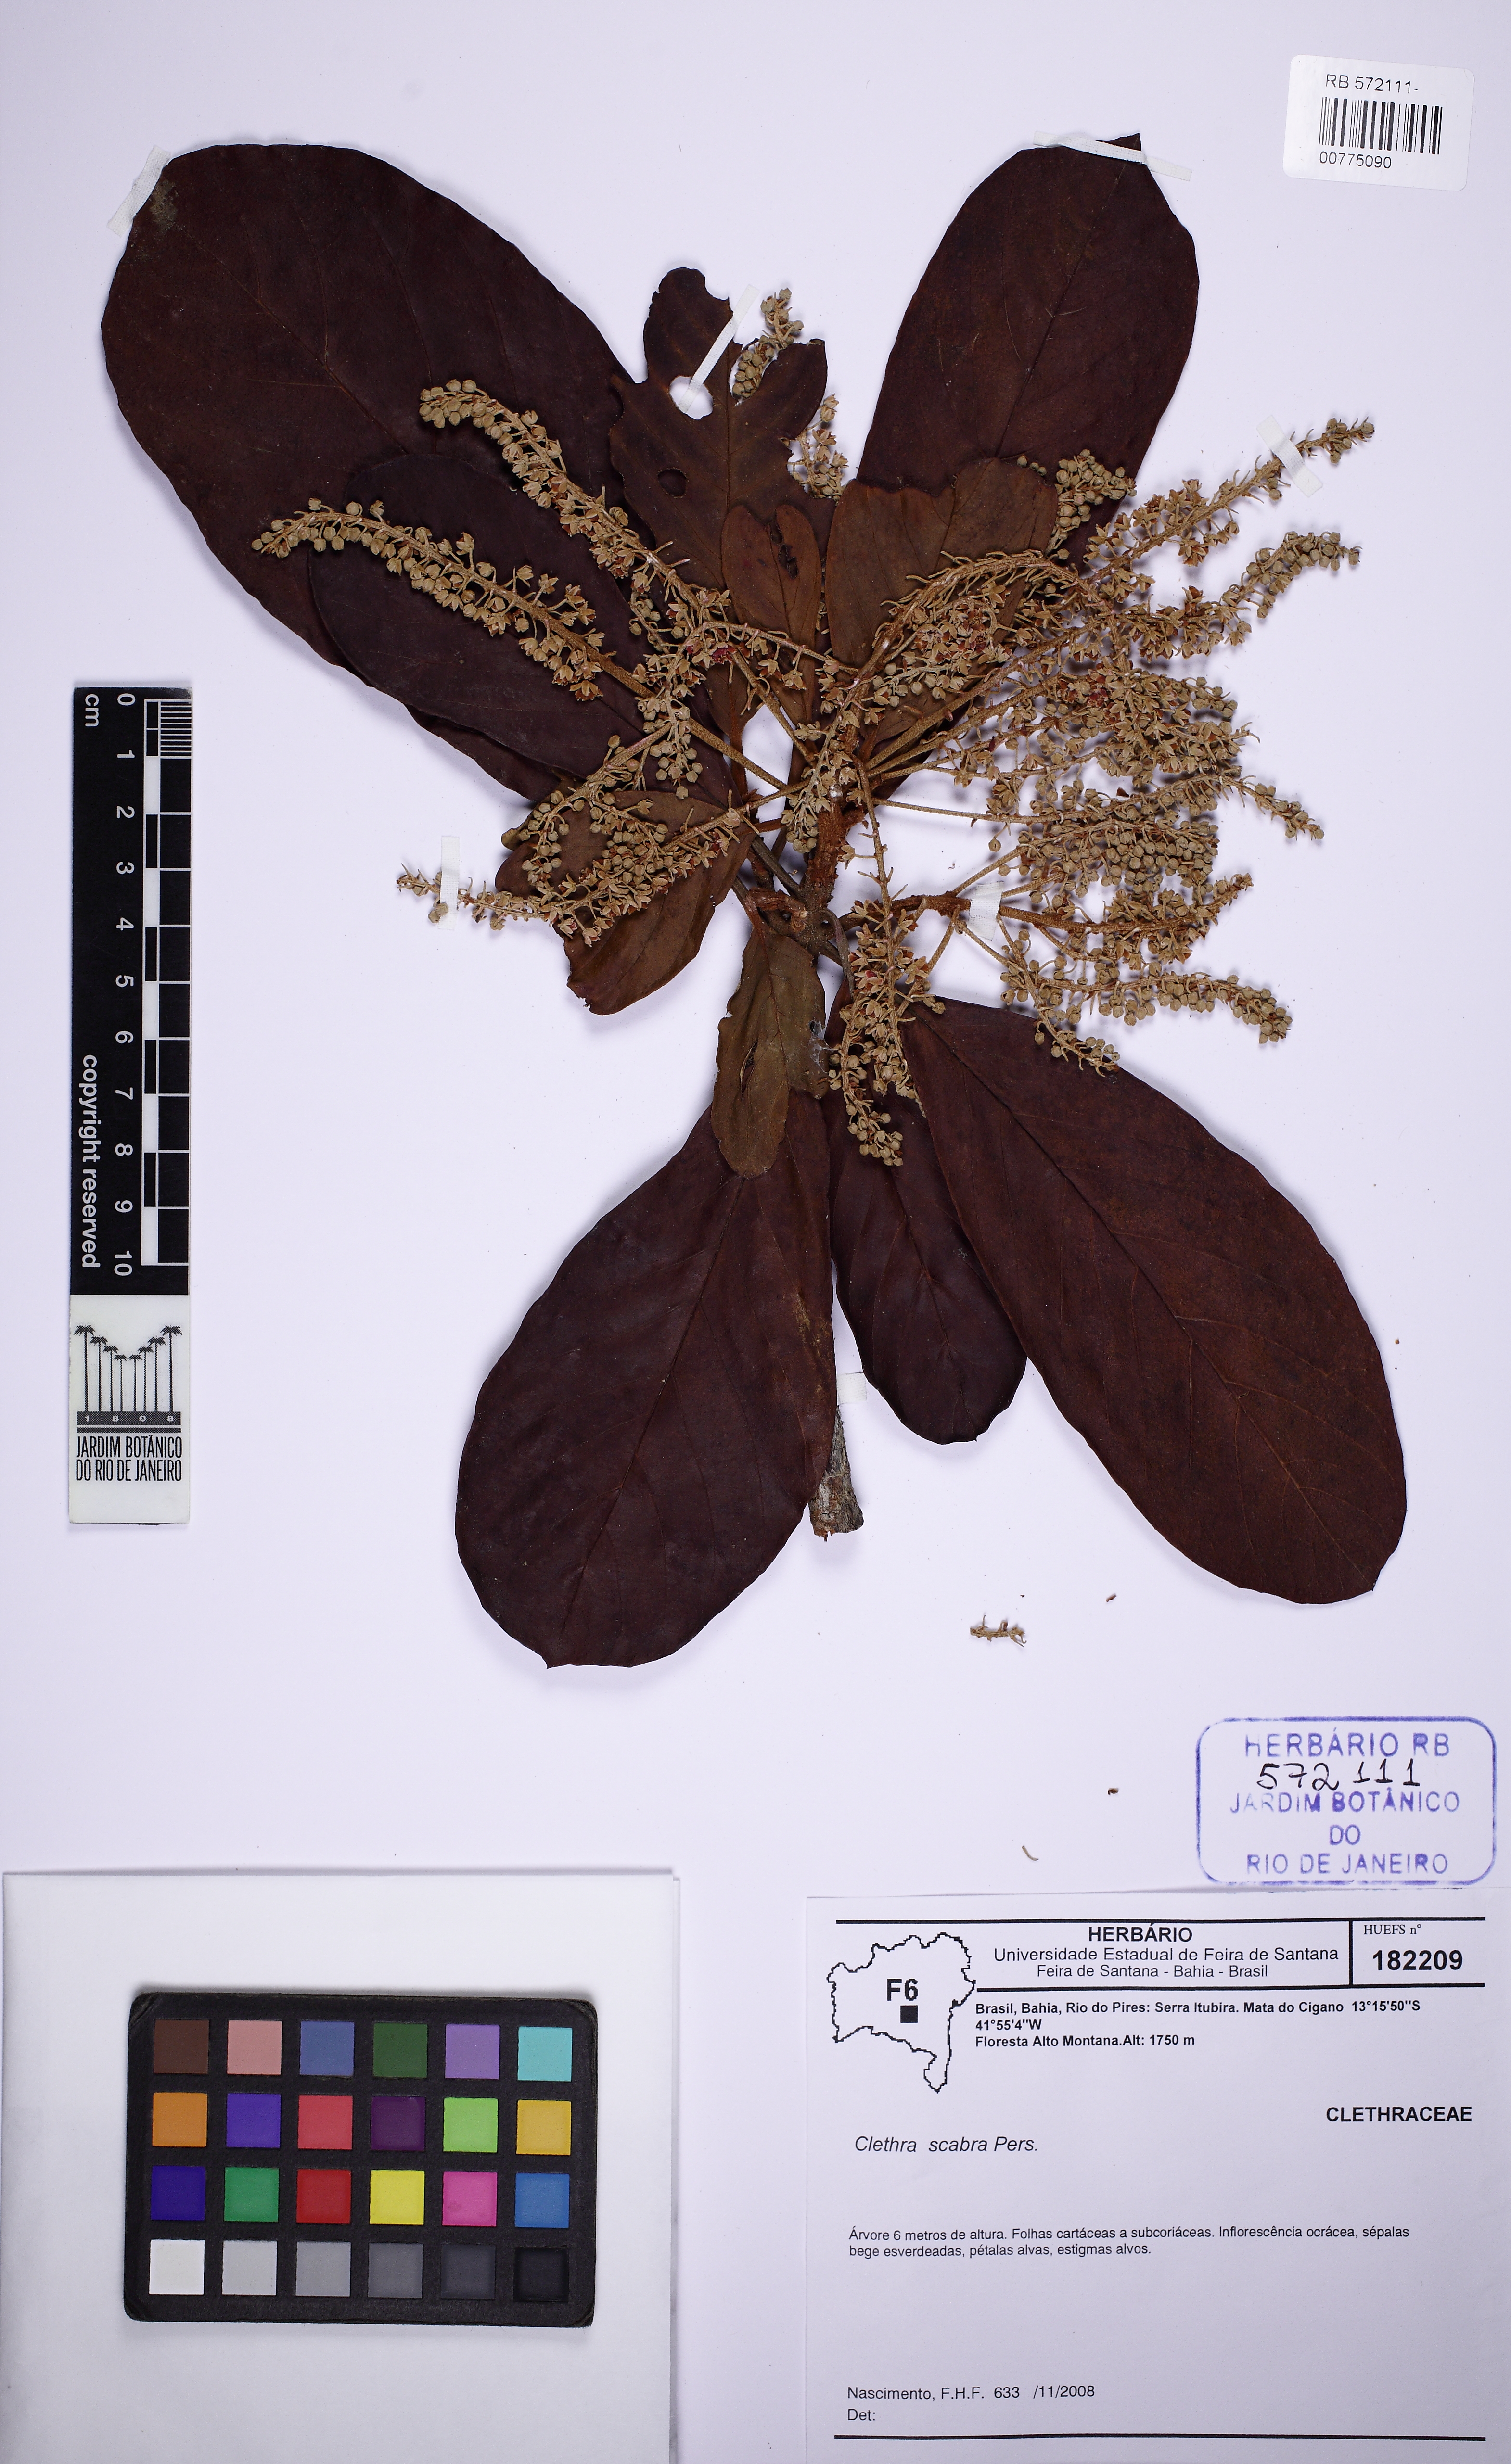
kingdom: Plantae
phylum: Tracheophyta
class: Magnoliopsida
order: Celastrales
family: Celastraceae
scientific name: Celastraceae
